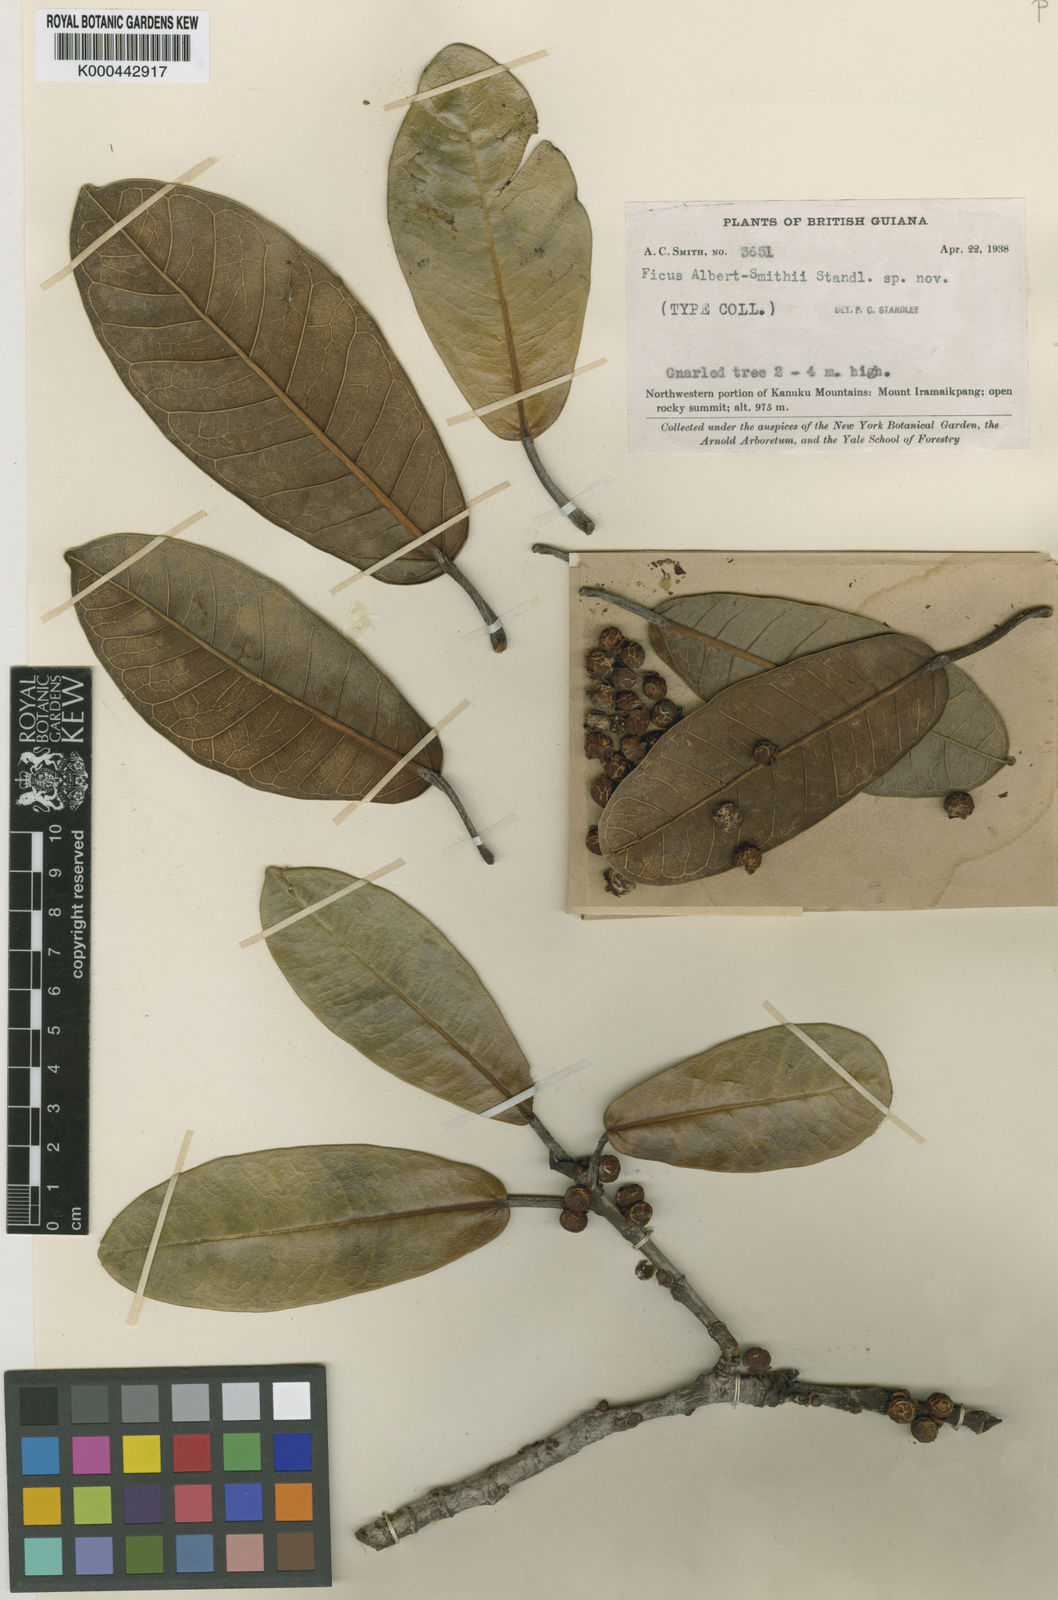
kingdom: Plantae
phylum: Tracheophyta
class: Magnoliopsida
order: Rosales
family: Moraceae
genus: Ficus
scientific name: Ficus albert-smithii
